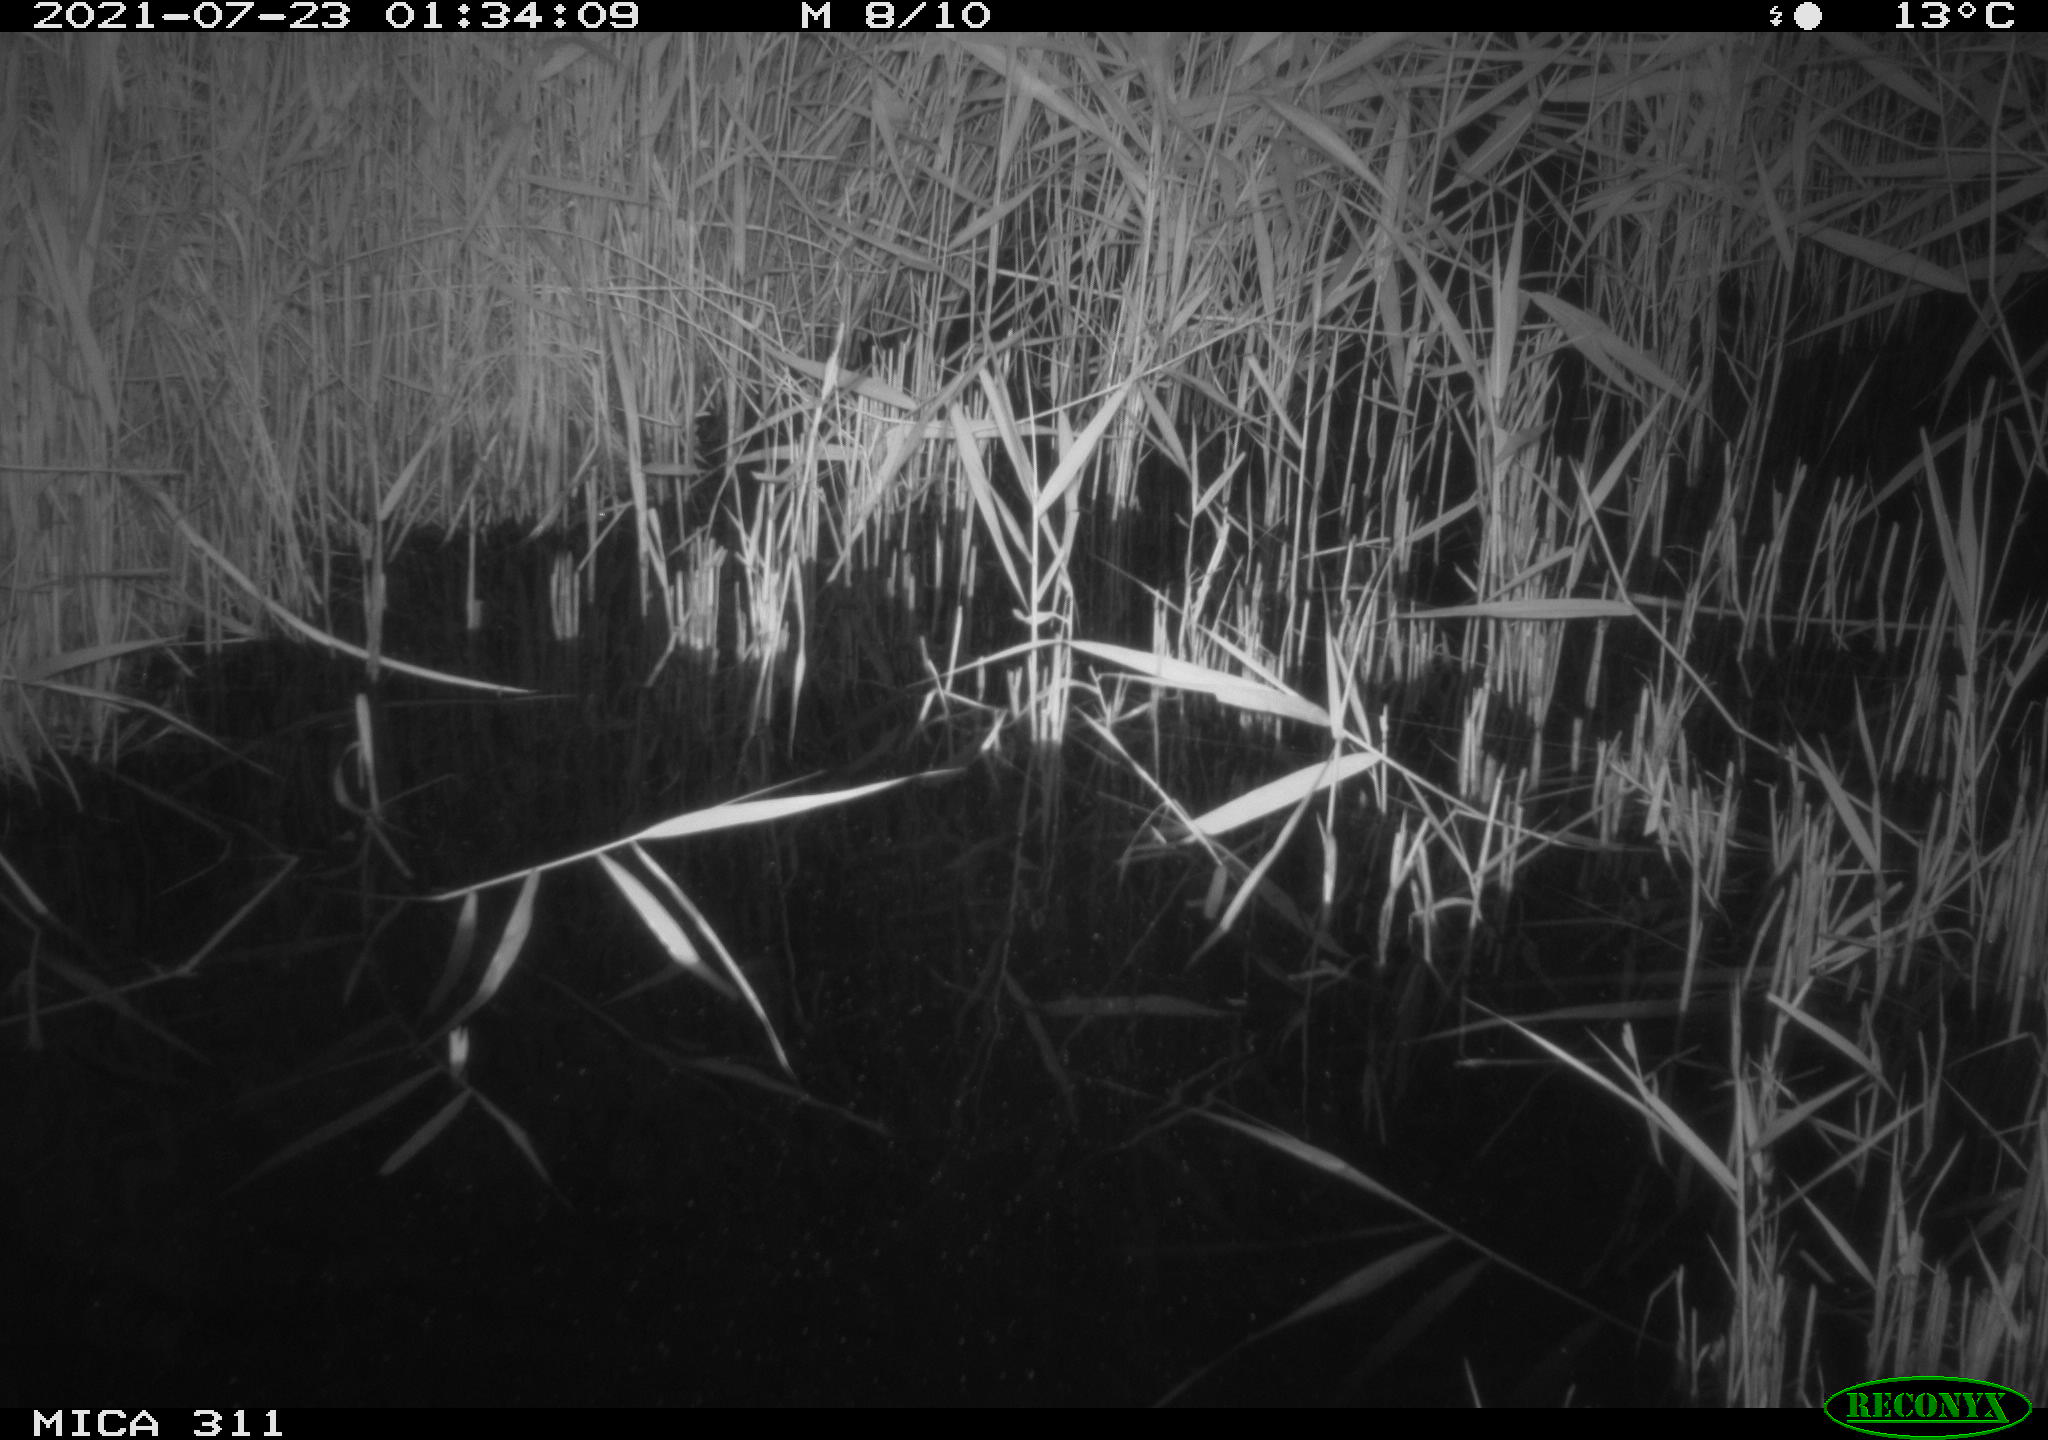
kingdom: Animalia
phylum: Chordata
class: Mammalia
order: Rodentia
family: Muridae
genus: Rattus
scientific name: Rattus norvegicus
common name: Brown rat
